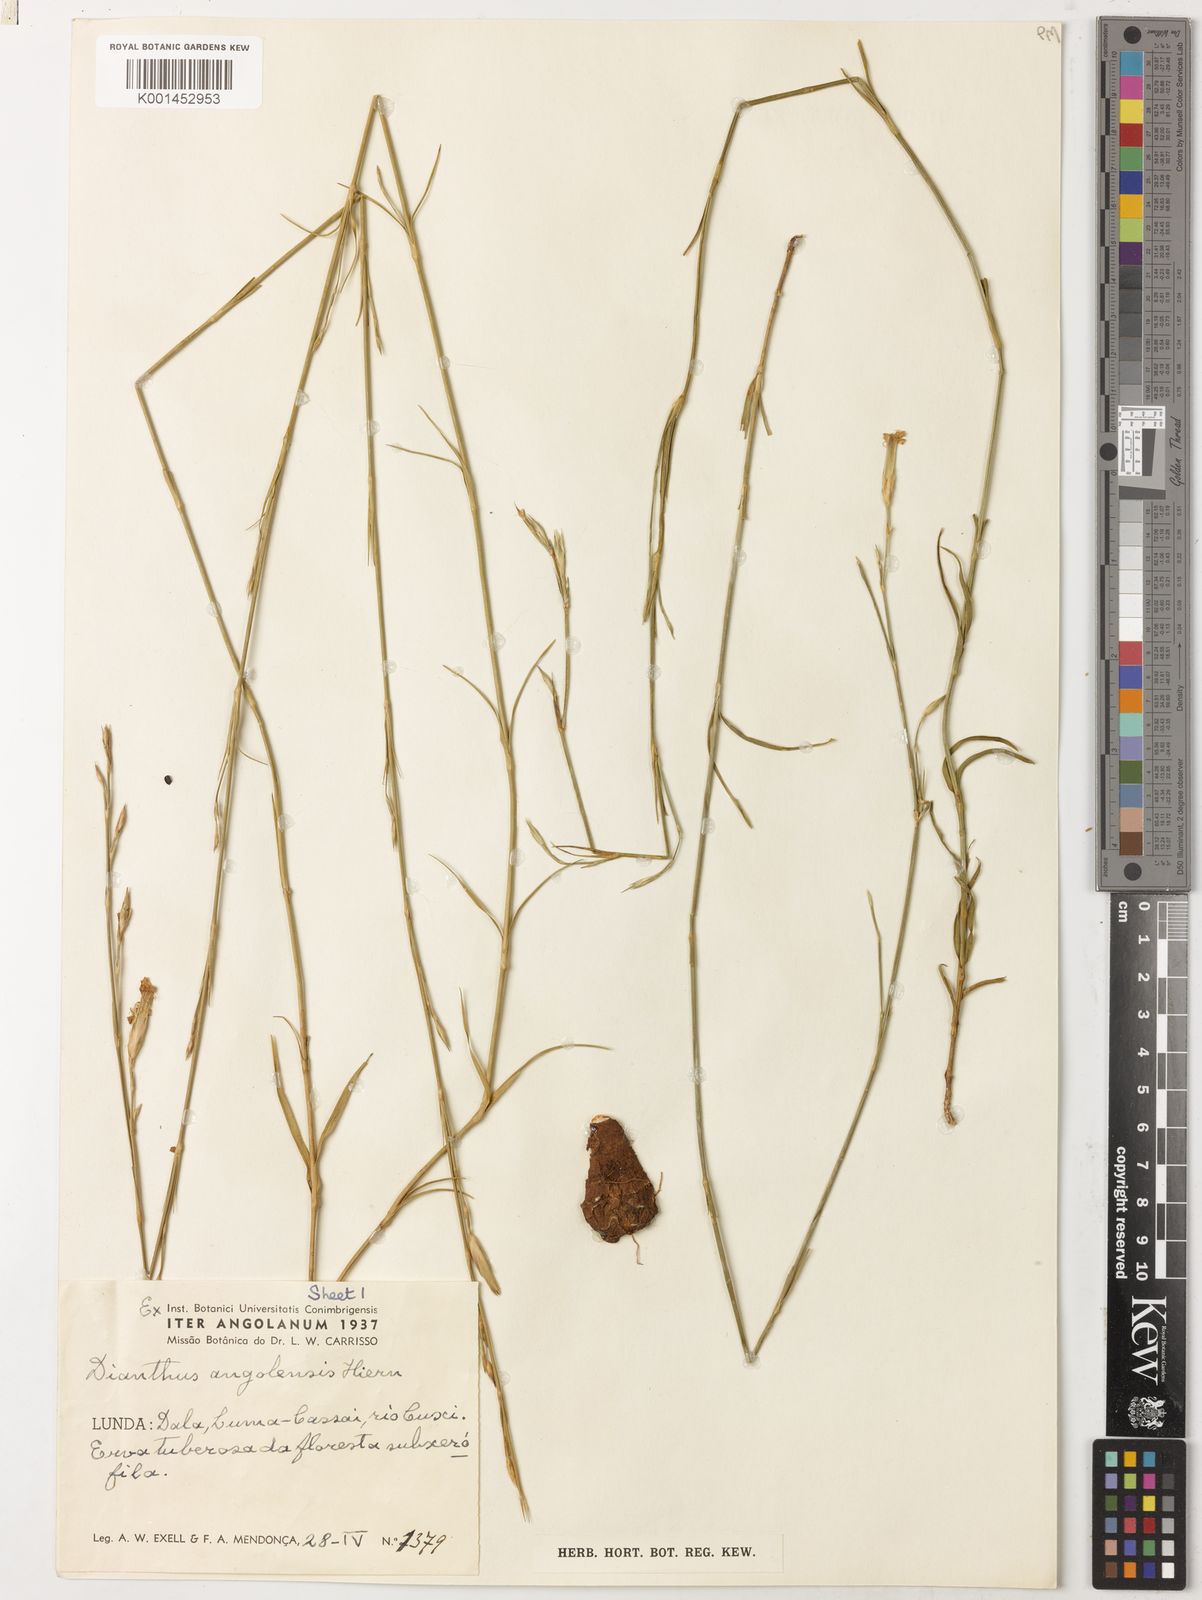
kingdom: Plantae
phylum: Tracheophyta
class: Magnoliopsida
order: Caryophyllales
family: Caryophyllaceae
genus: Dianthus
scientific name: Dianthus angolensis
